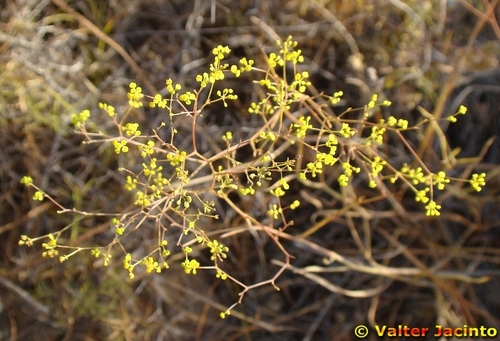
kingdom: Plantae
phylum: Tracheophyta
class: Magnoliopsida
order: Apiales
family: Apiaceae
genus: Bupleurum
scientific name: Bupleurum rigidum
